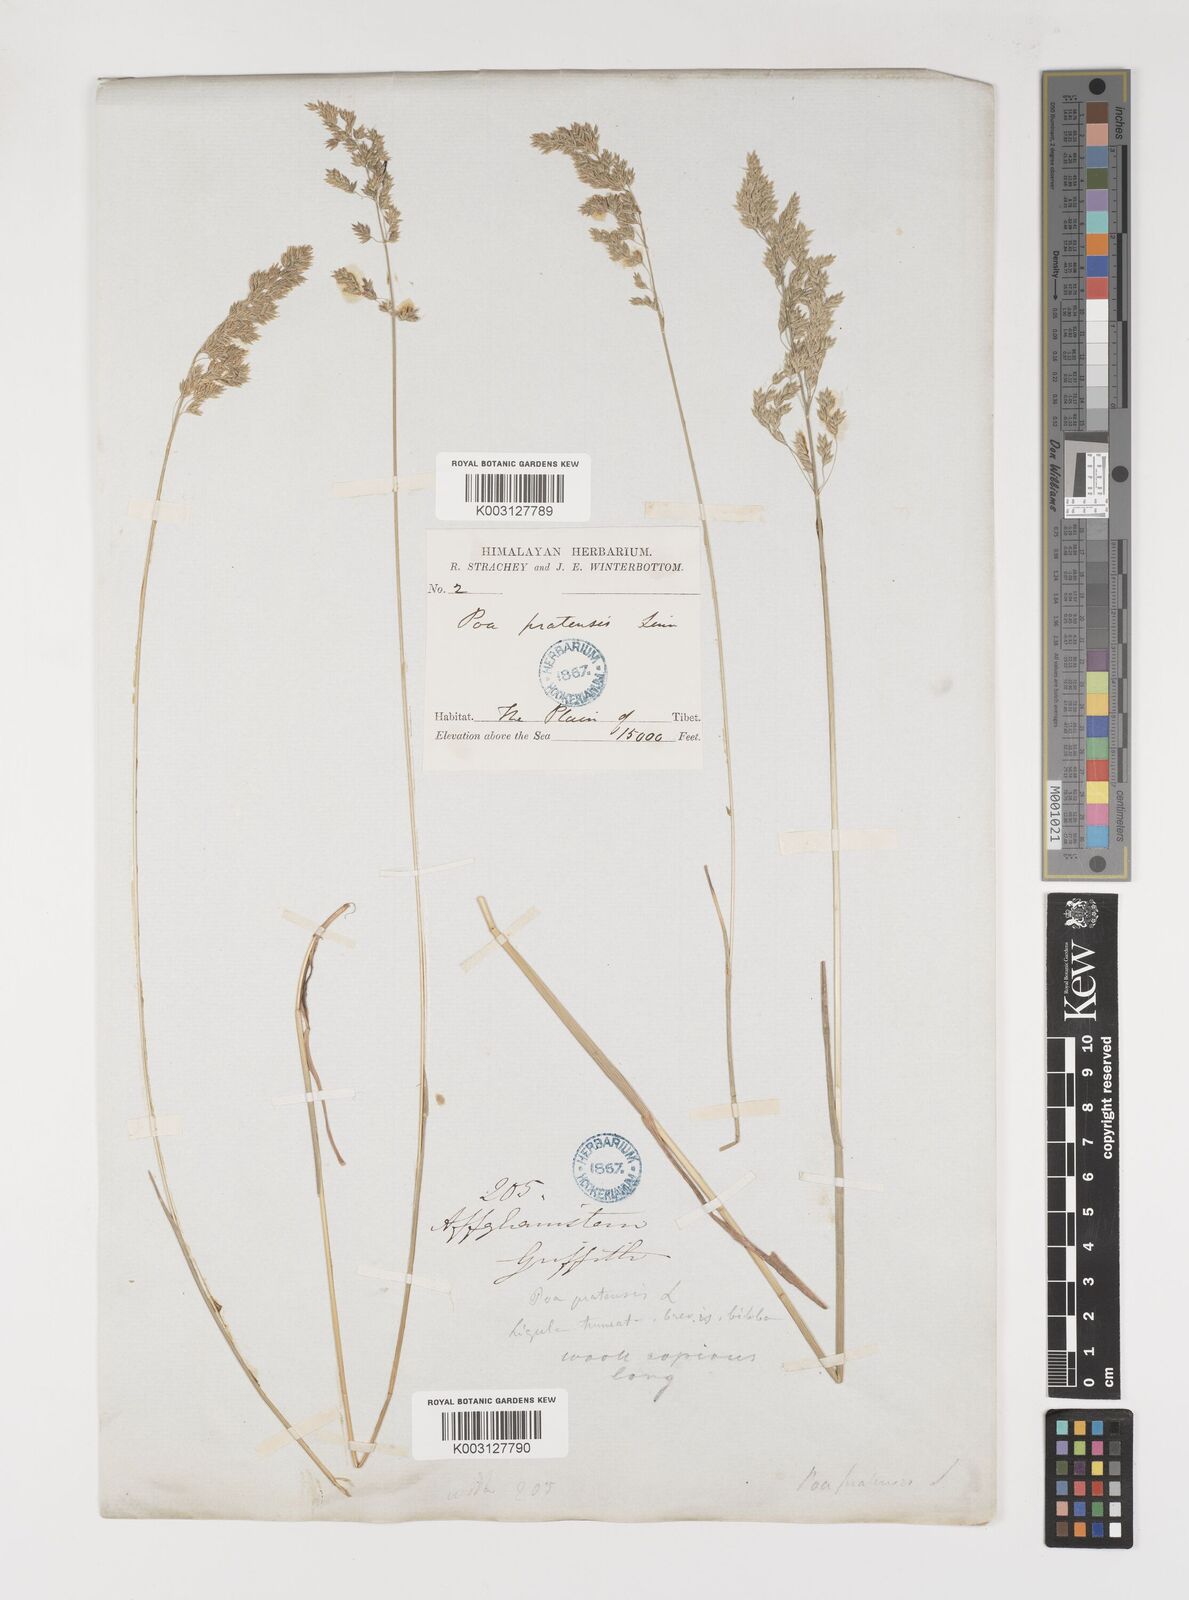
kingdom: Plantae
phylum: Tracheophyta
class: Liliopsida
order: Poales
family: Poaceae
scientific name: Poaceae
